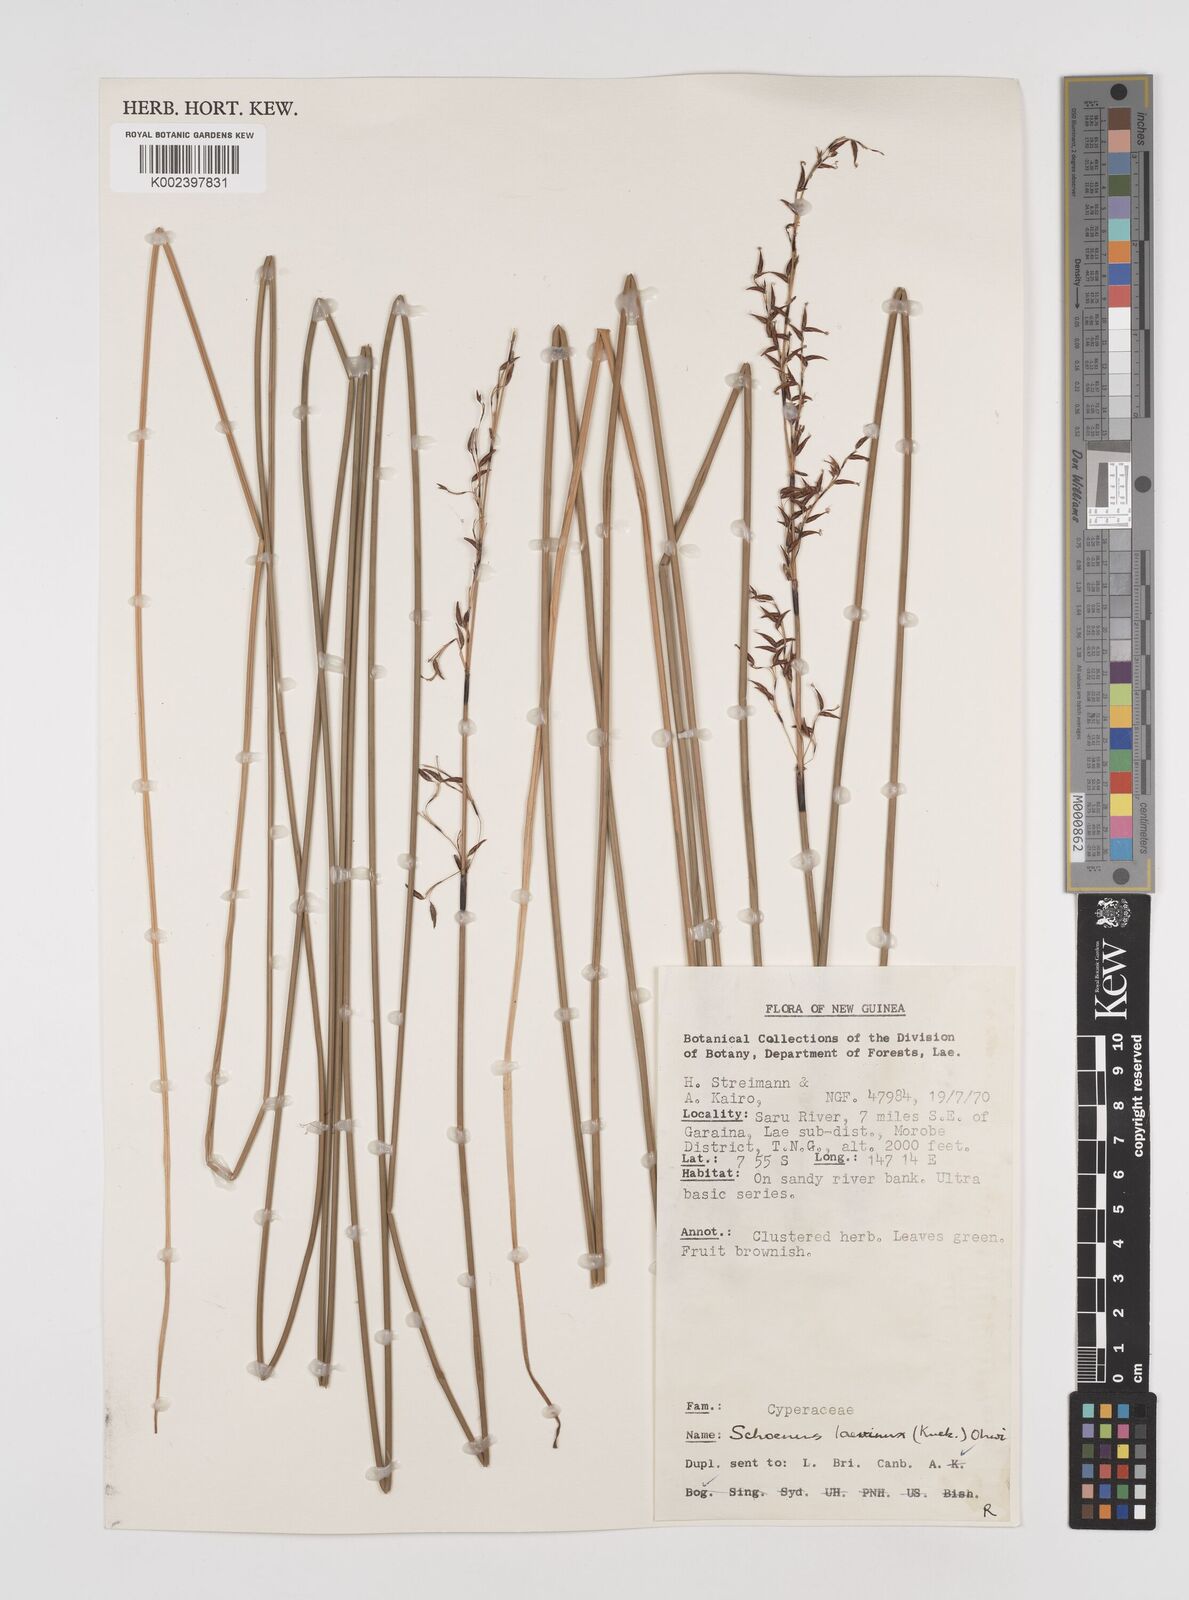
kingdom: Plantae
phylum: Tracheophyta
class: Liliopsida
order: Poales
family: Cyperaceae
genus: Schoenus
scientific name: Schoenus laevinux
